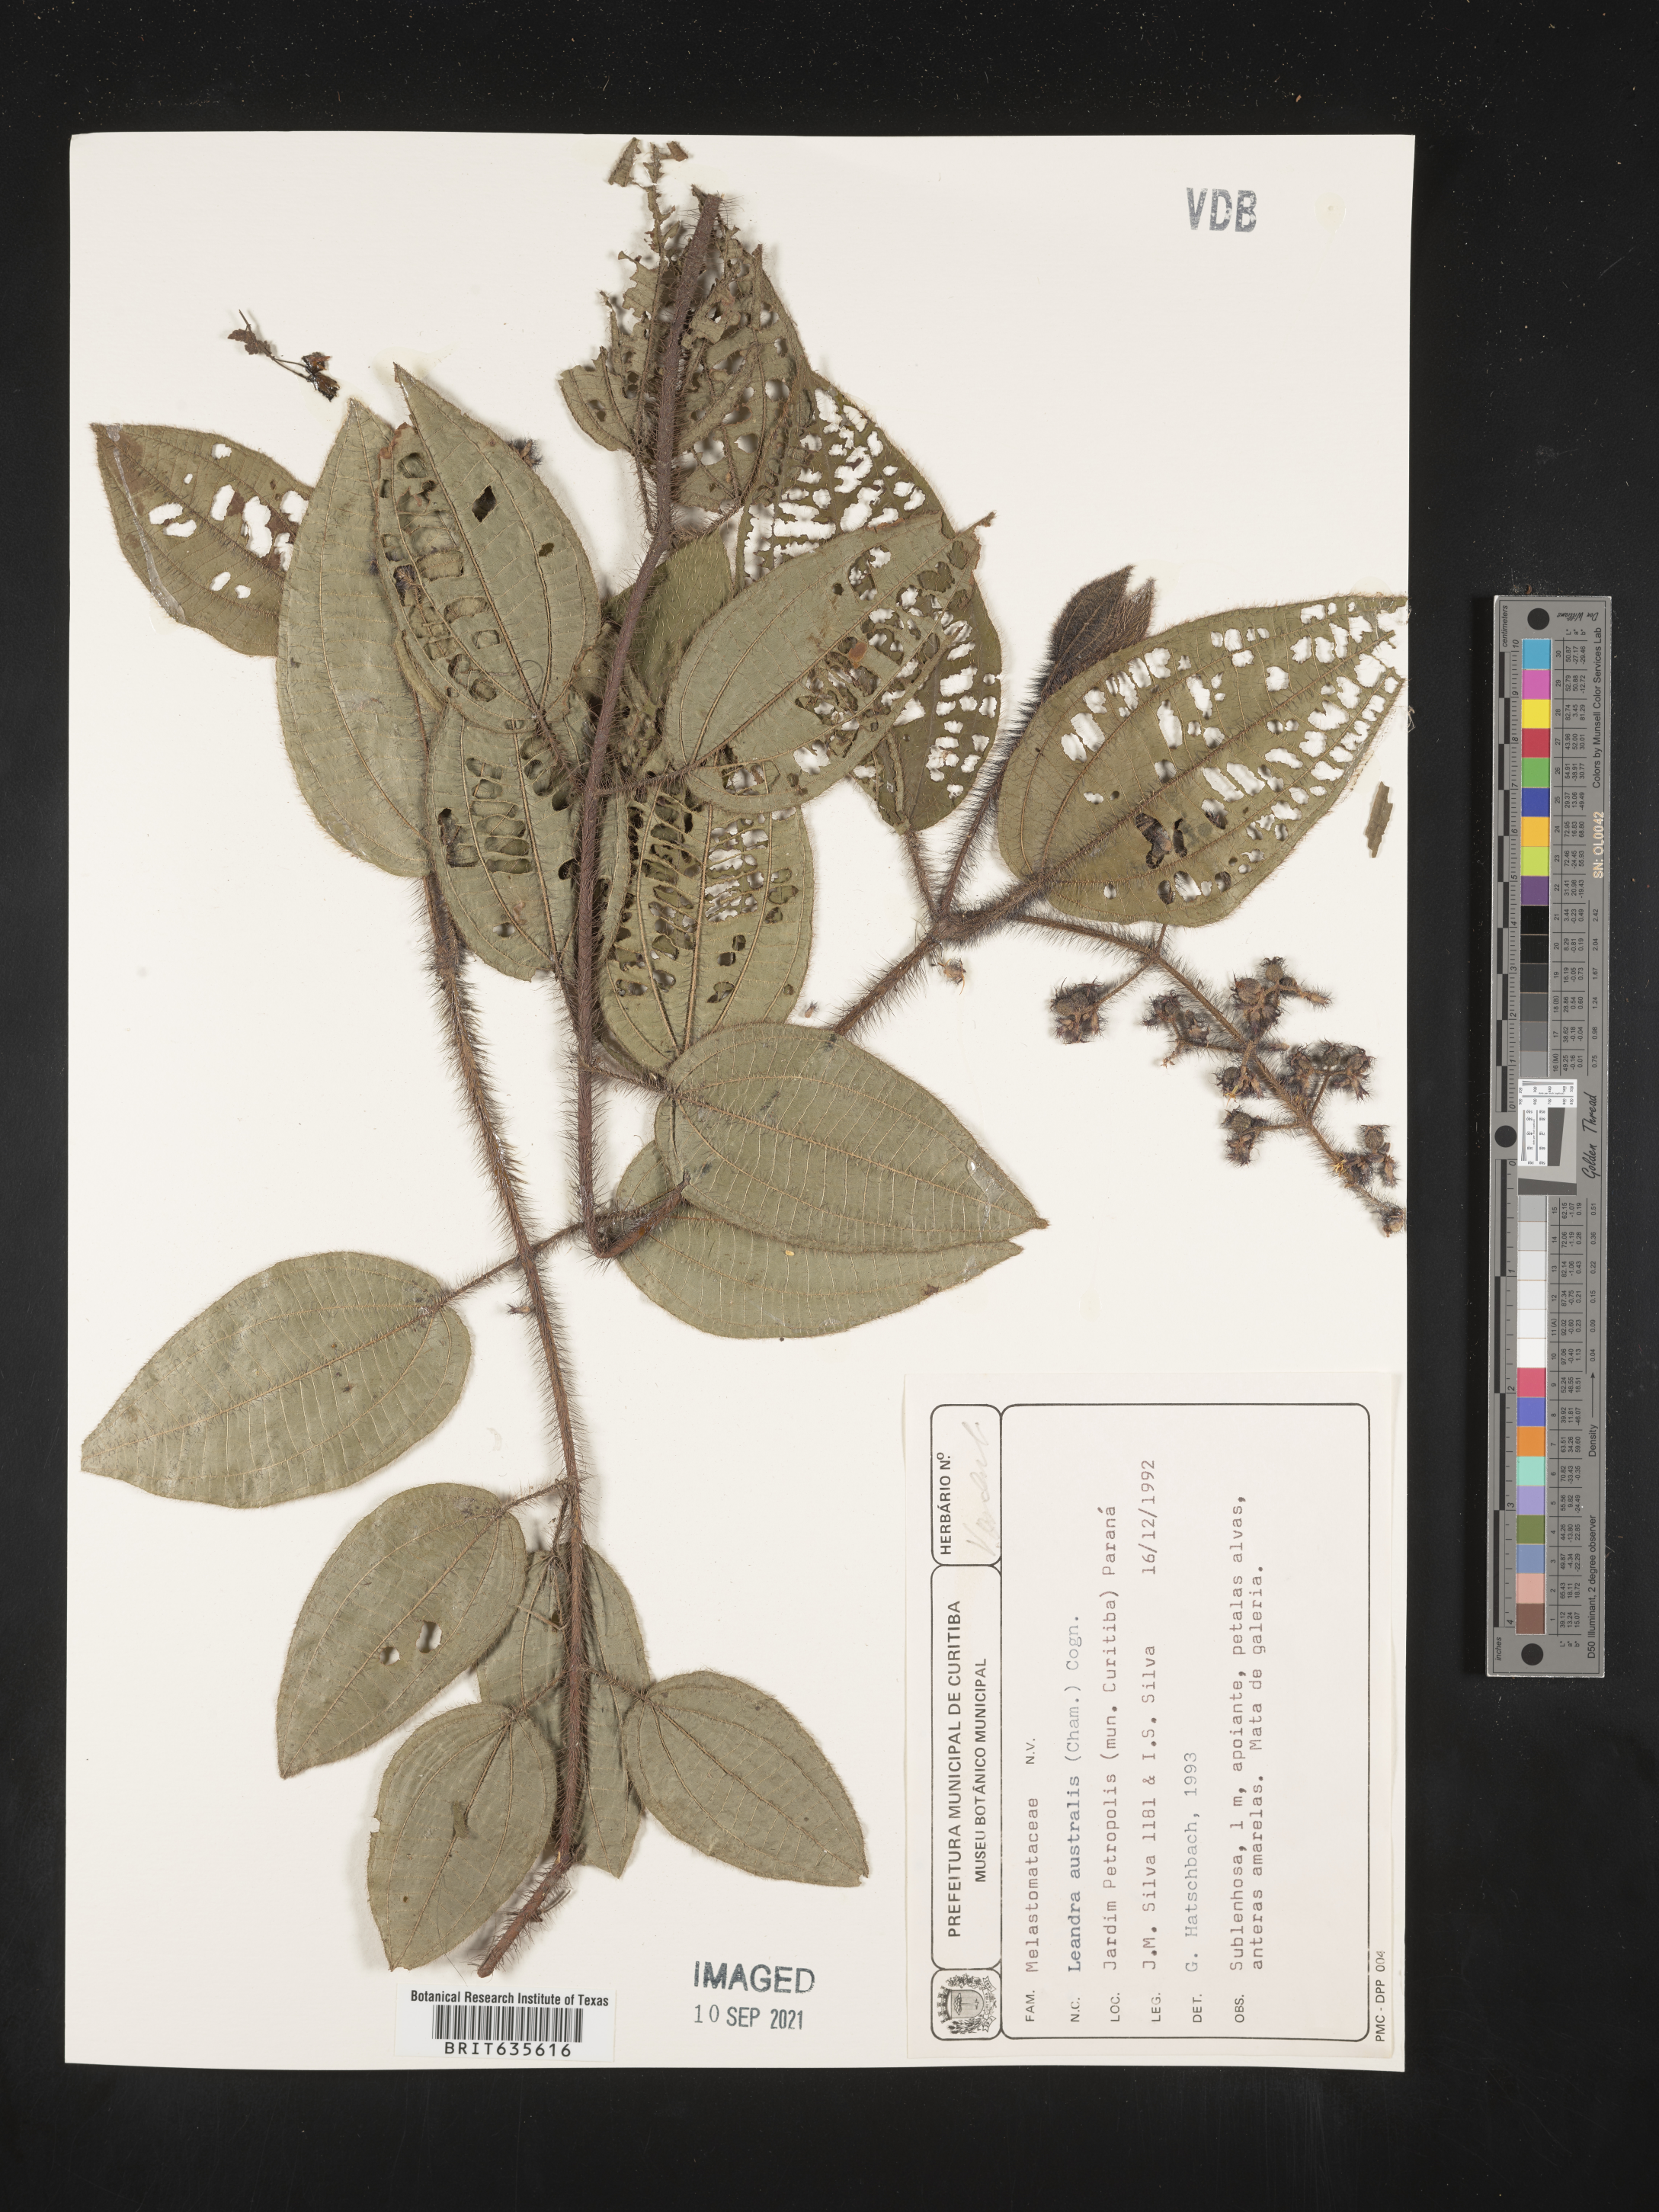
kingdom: Plantae
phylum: Tracheophyta
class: Magnoliopsida
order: Myrtales
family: Melastomataceae
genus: Miconia
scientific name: Miconia
